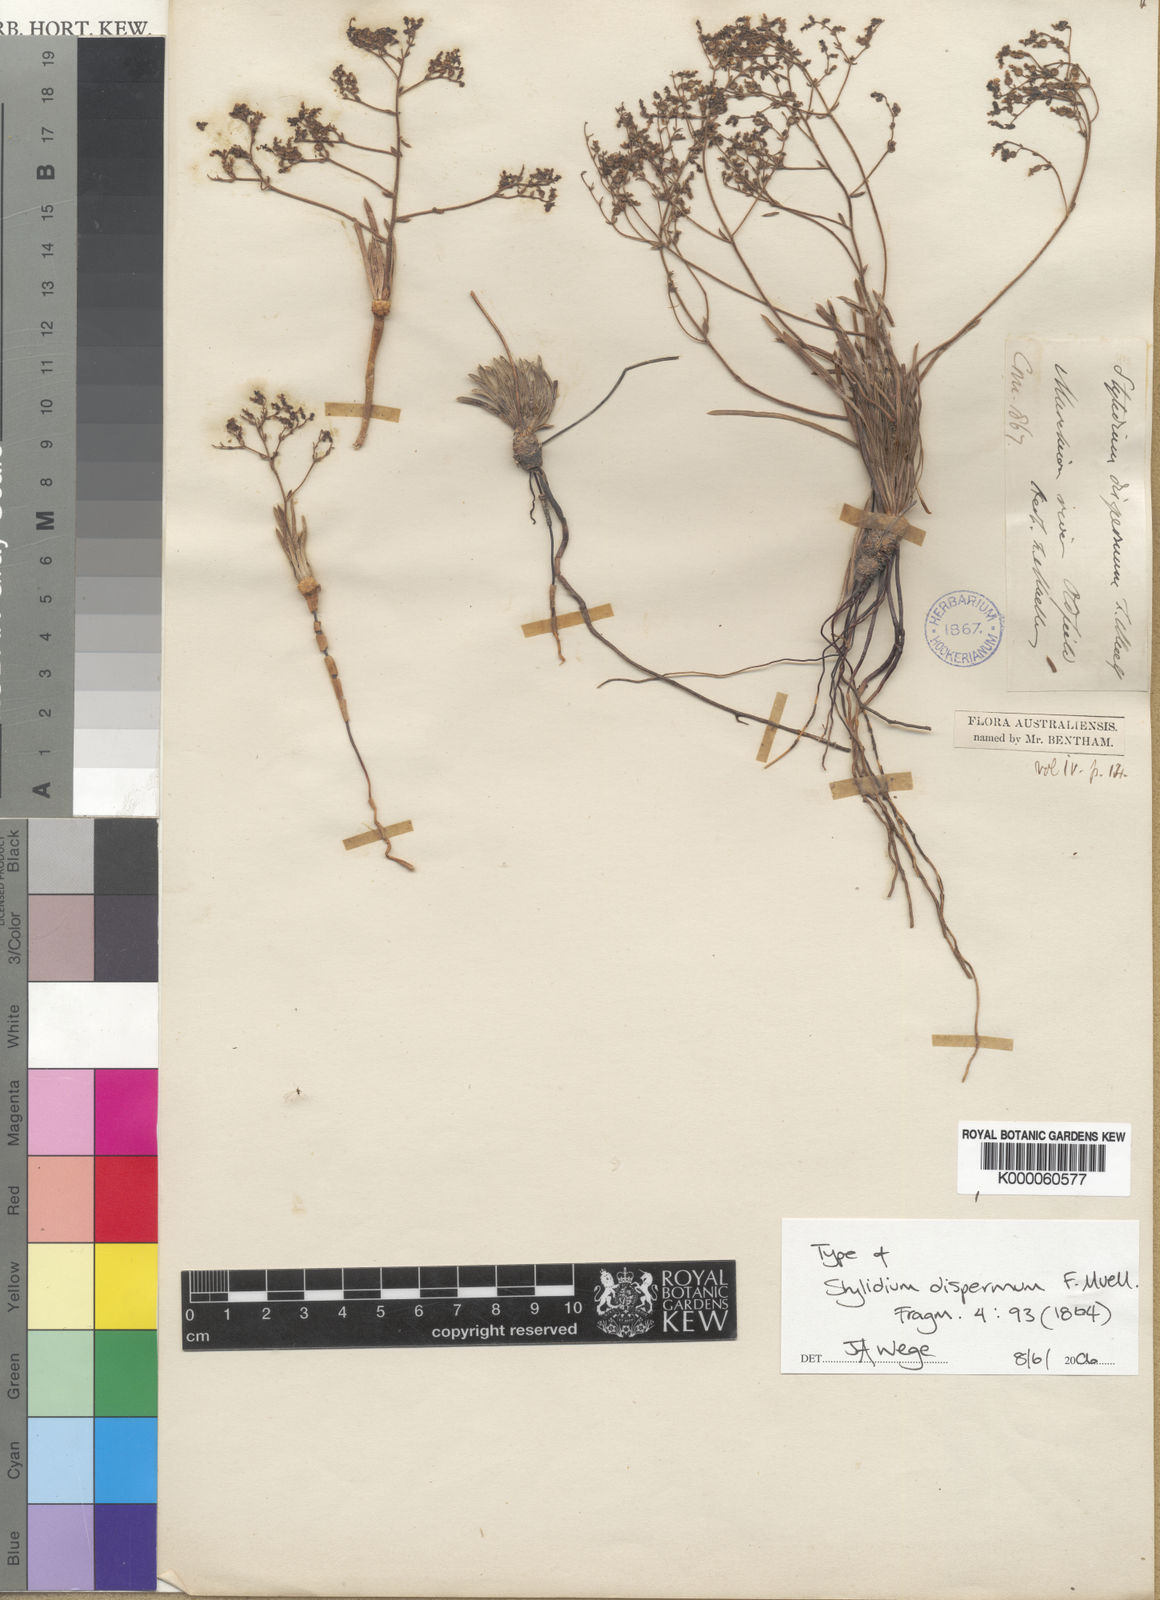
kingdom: Plantae
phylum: Tracheophyta
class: Magnoliopsida
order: Asterales
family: Stylidiaceae
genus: Stylidium
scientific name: Stylidium dispermum
